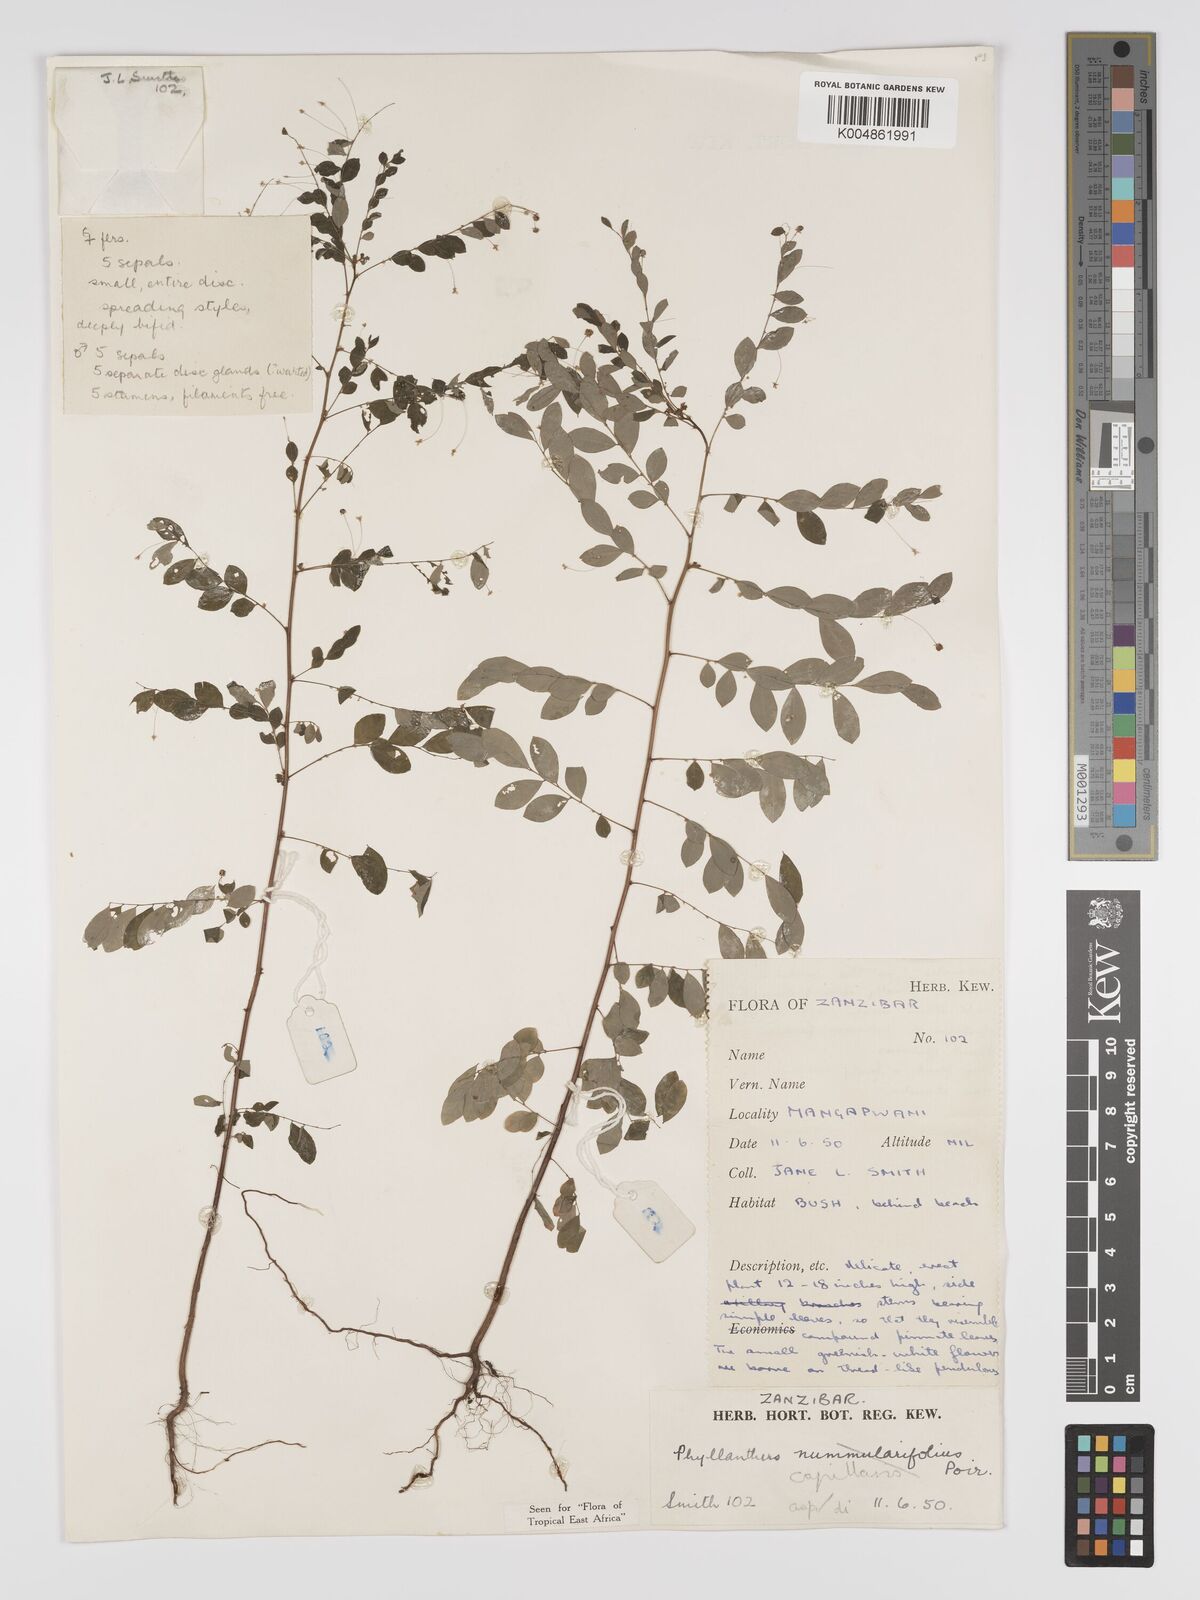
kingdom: Plantae
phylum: Tracheophyta
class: Magnoliopsida
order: Malpighiales
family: Phyllanthaceae
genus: Phyllanthus
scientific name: Phyllanthus nummulariifolius
